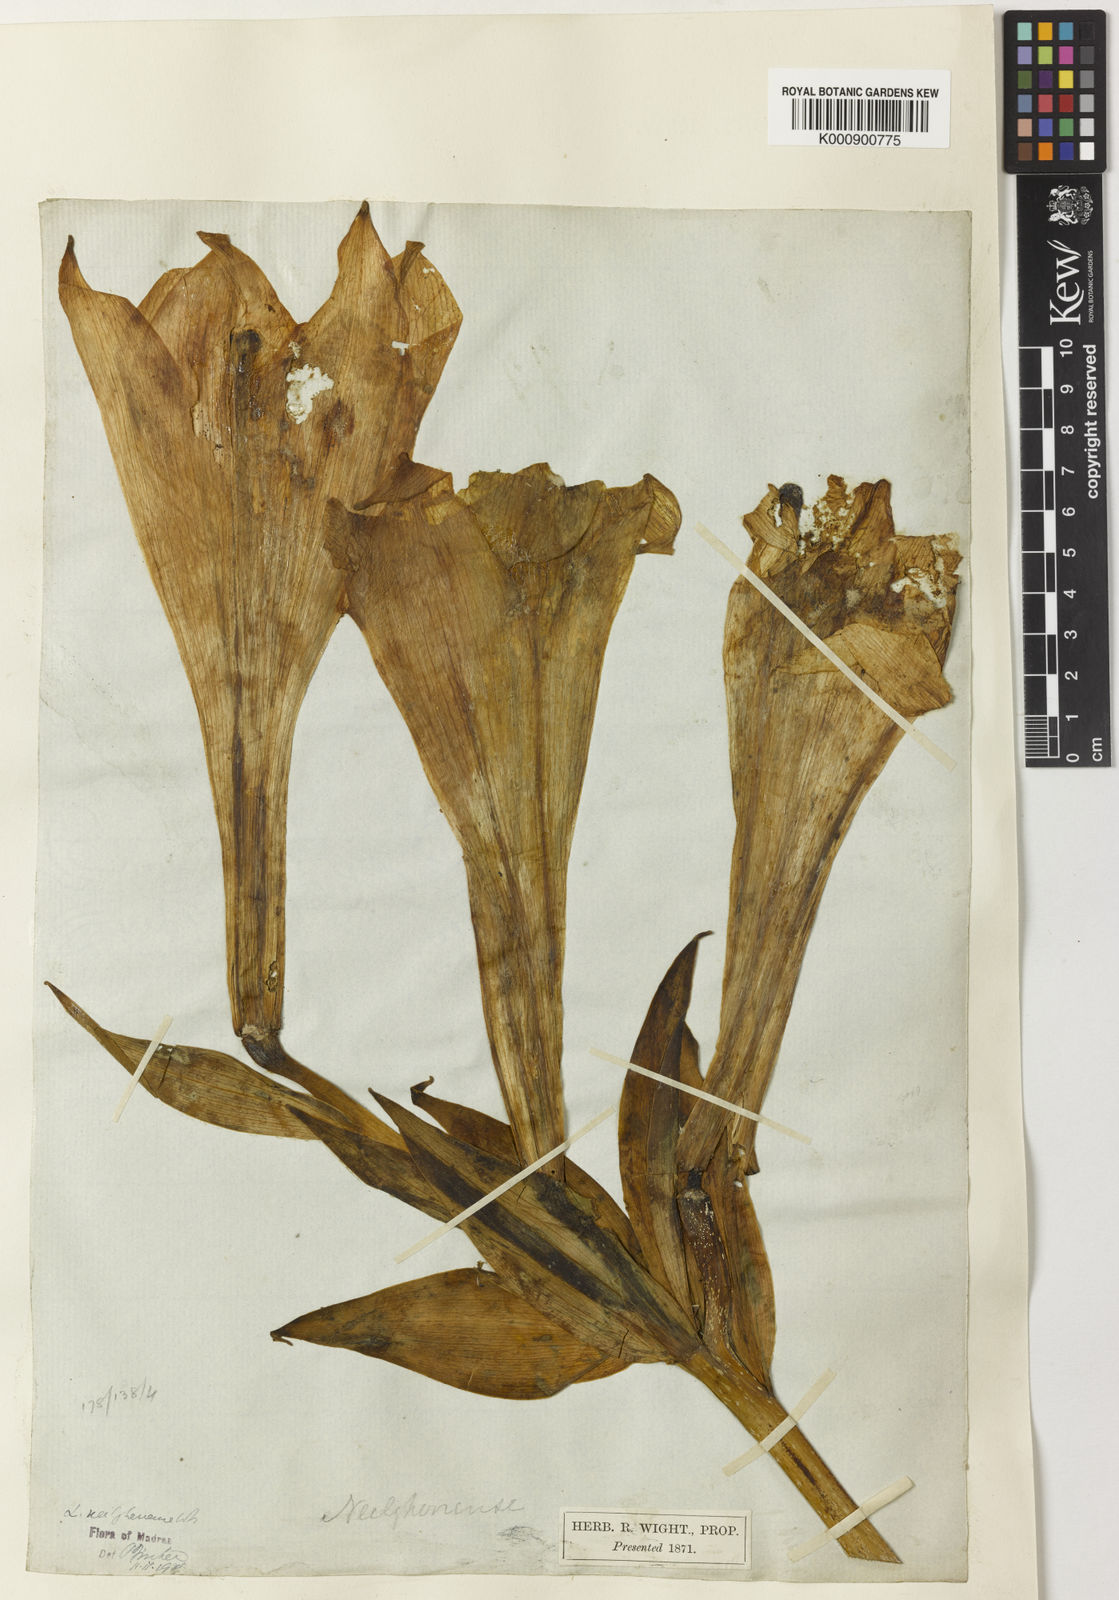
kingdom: Plantae
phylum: Tracheophyta
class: Liliopsida
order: Liliales
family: Liliaceae
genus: Lilium
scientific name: Lilium wallichianum
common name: Wallich's lily
